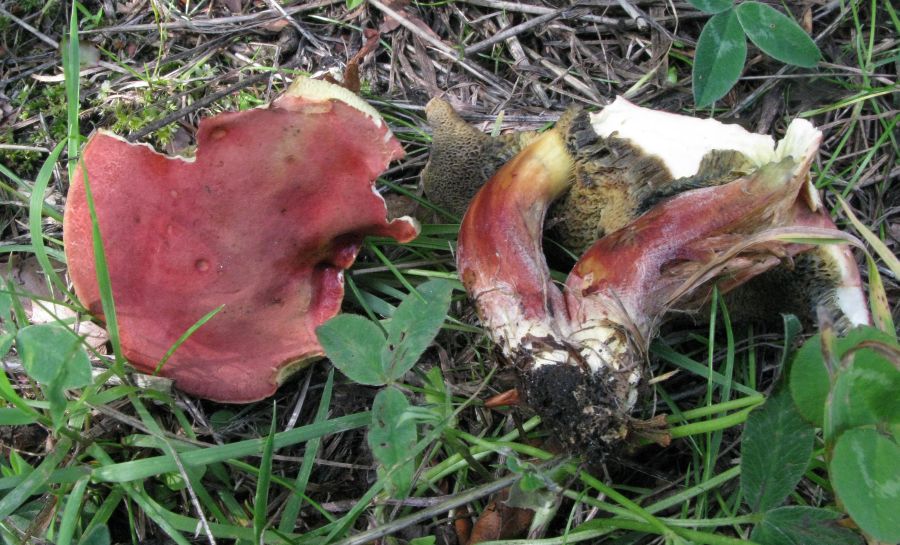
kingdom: Fungi
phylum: Basidiomycota
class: Agaricomycetes
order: Boletales
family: Boletaceae
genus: Hortiboletus
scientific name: Hortiboletus rubellus
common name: blodrød rørhat
